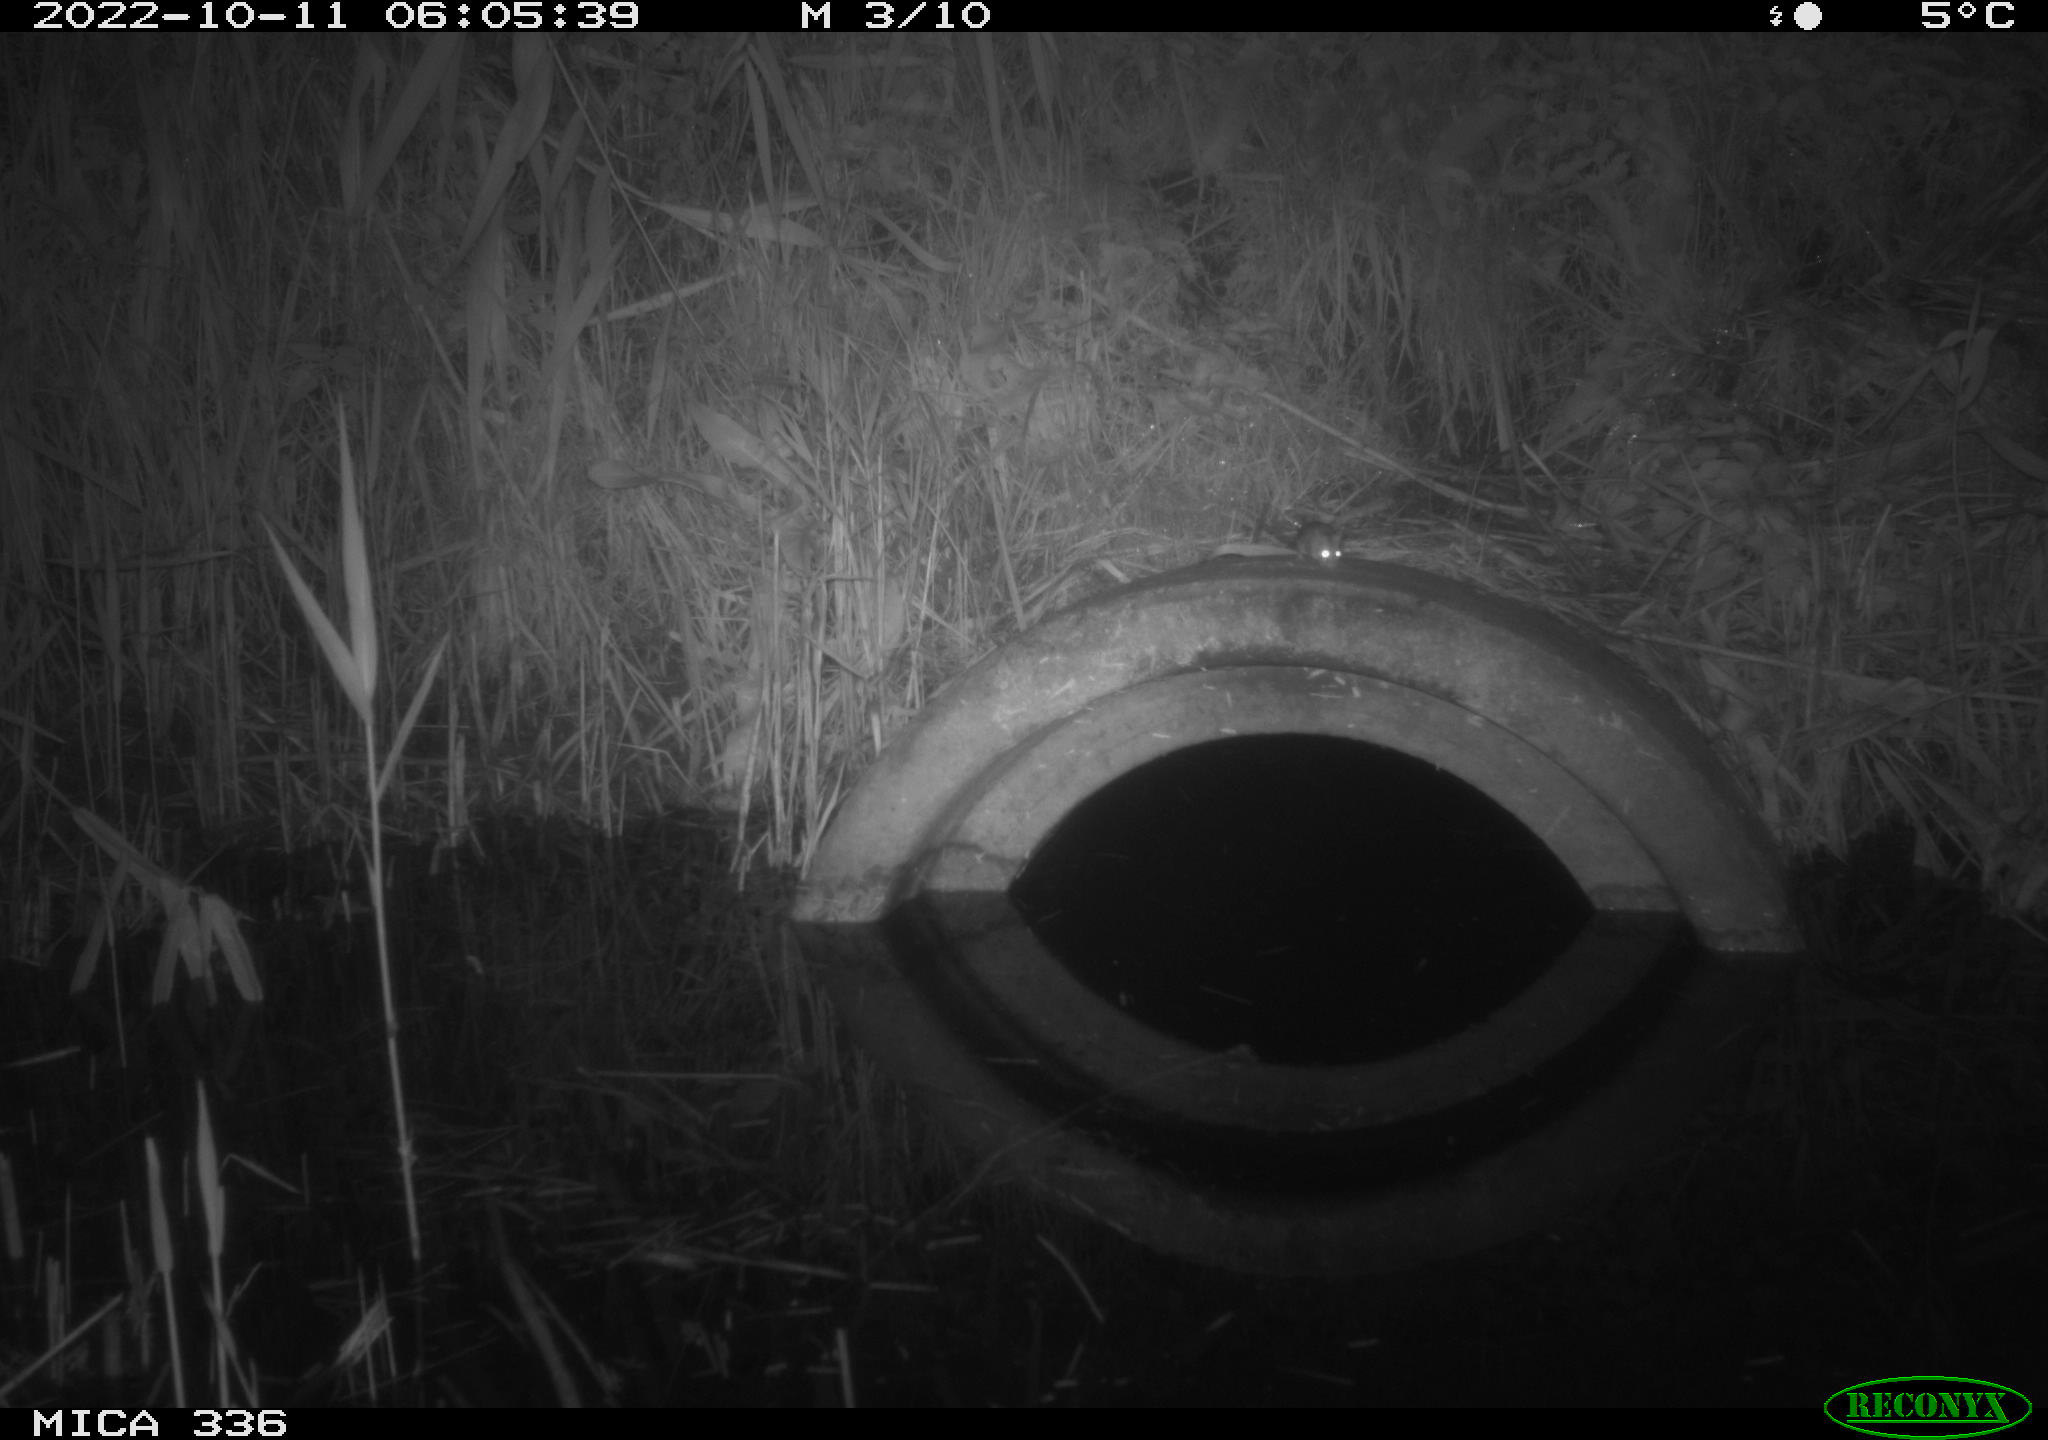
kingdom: Animalia
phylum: Chordata
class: Mammalia
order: Rodentia
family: Muridae
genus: Rattus
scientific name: Rattus norvegicus
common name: Brown rat
